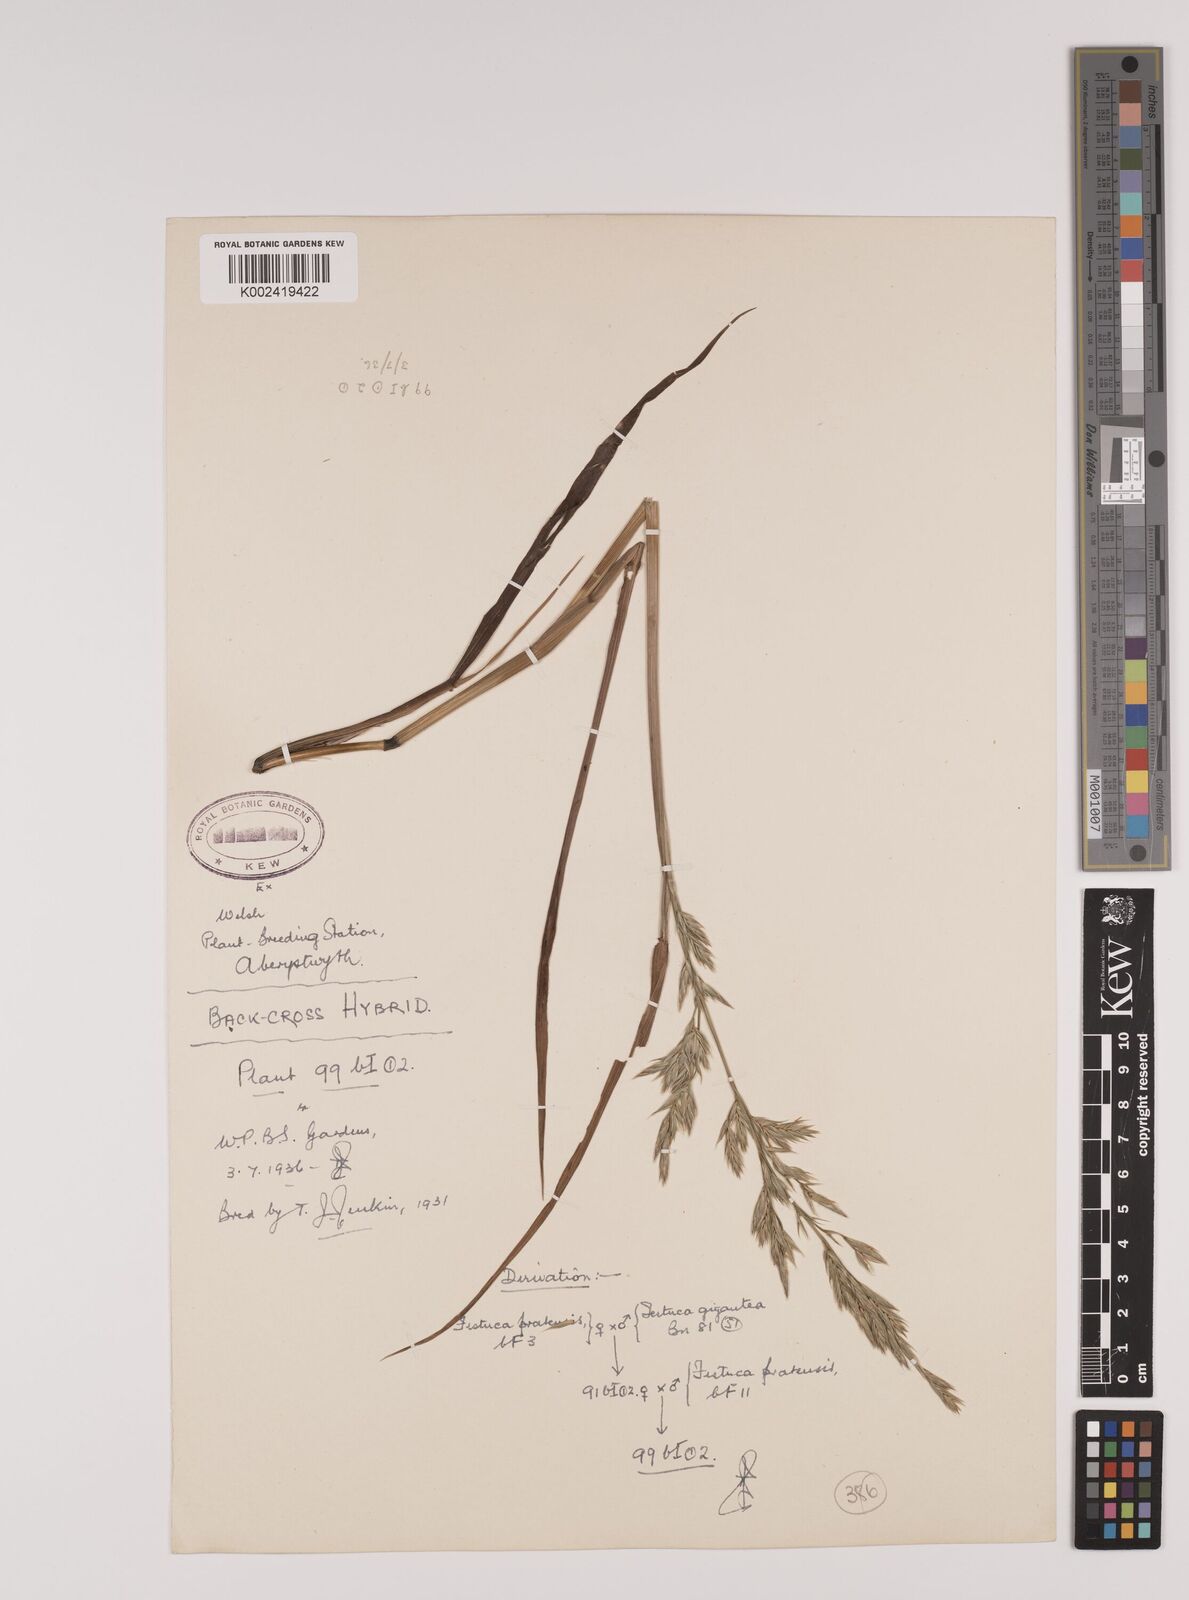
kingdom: Plantae
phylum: Tracheophyta
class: Liliopsida
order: Poales
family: Poaceae
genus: Lolium
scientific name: Lolium giganteum
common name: Giant fescue
